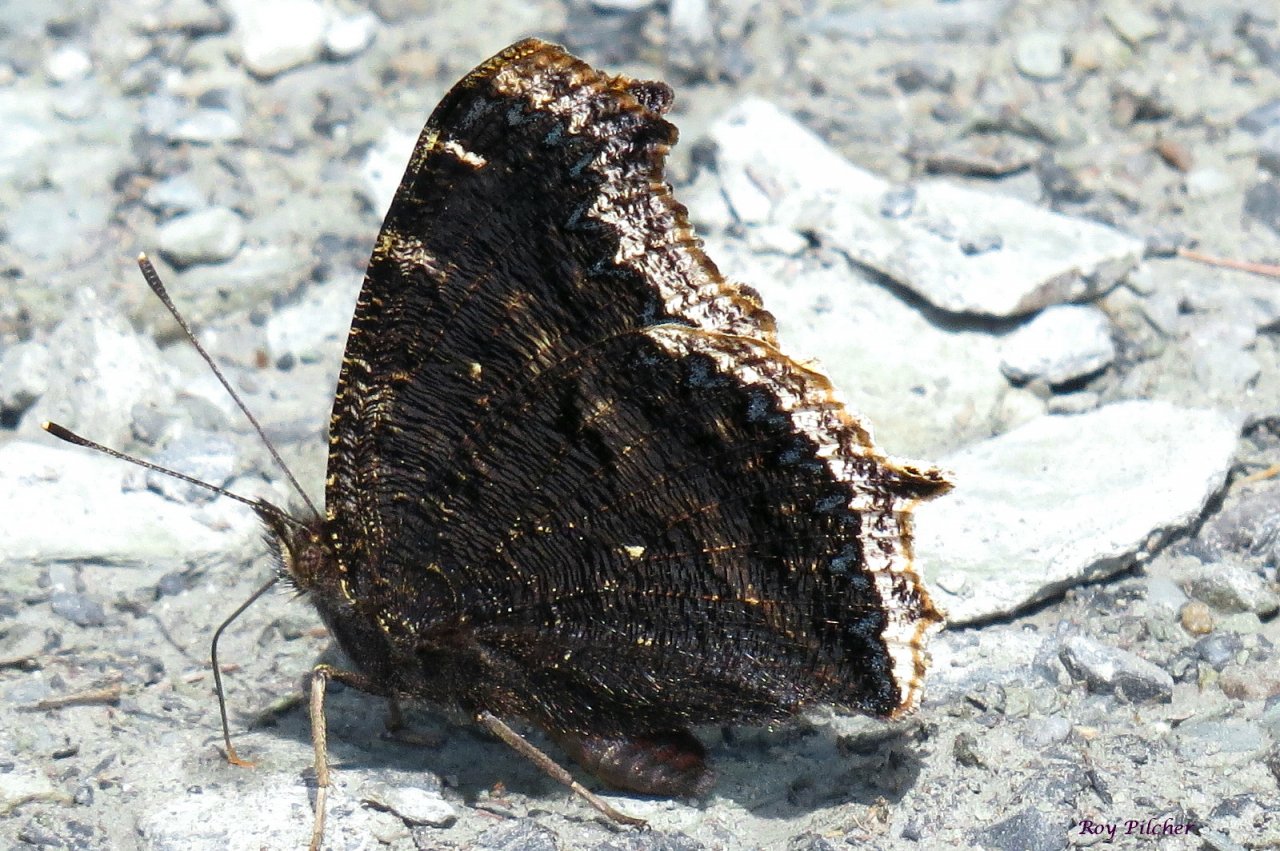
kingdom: Animalia
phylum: Arthropoda
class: Insecta
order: Lepidoptera
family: Nymphalidae
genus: Nymphalis
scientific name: Nymphalis antiopa
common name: Mourning Cloak
